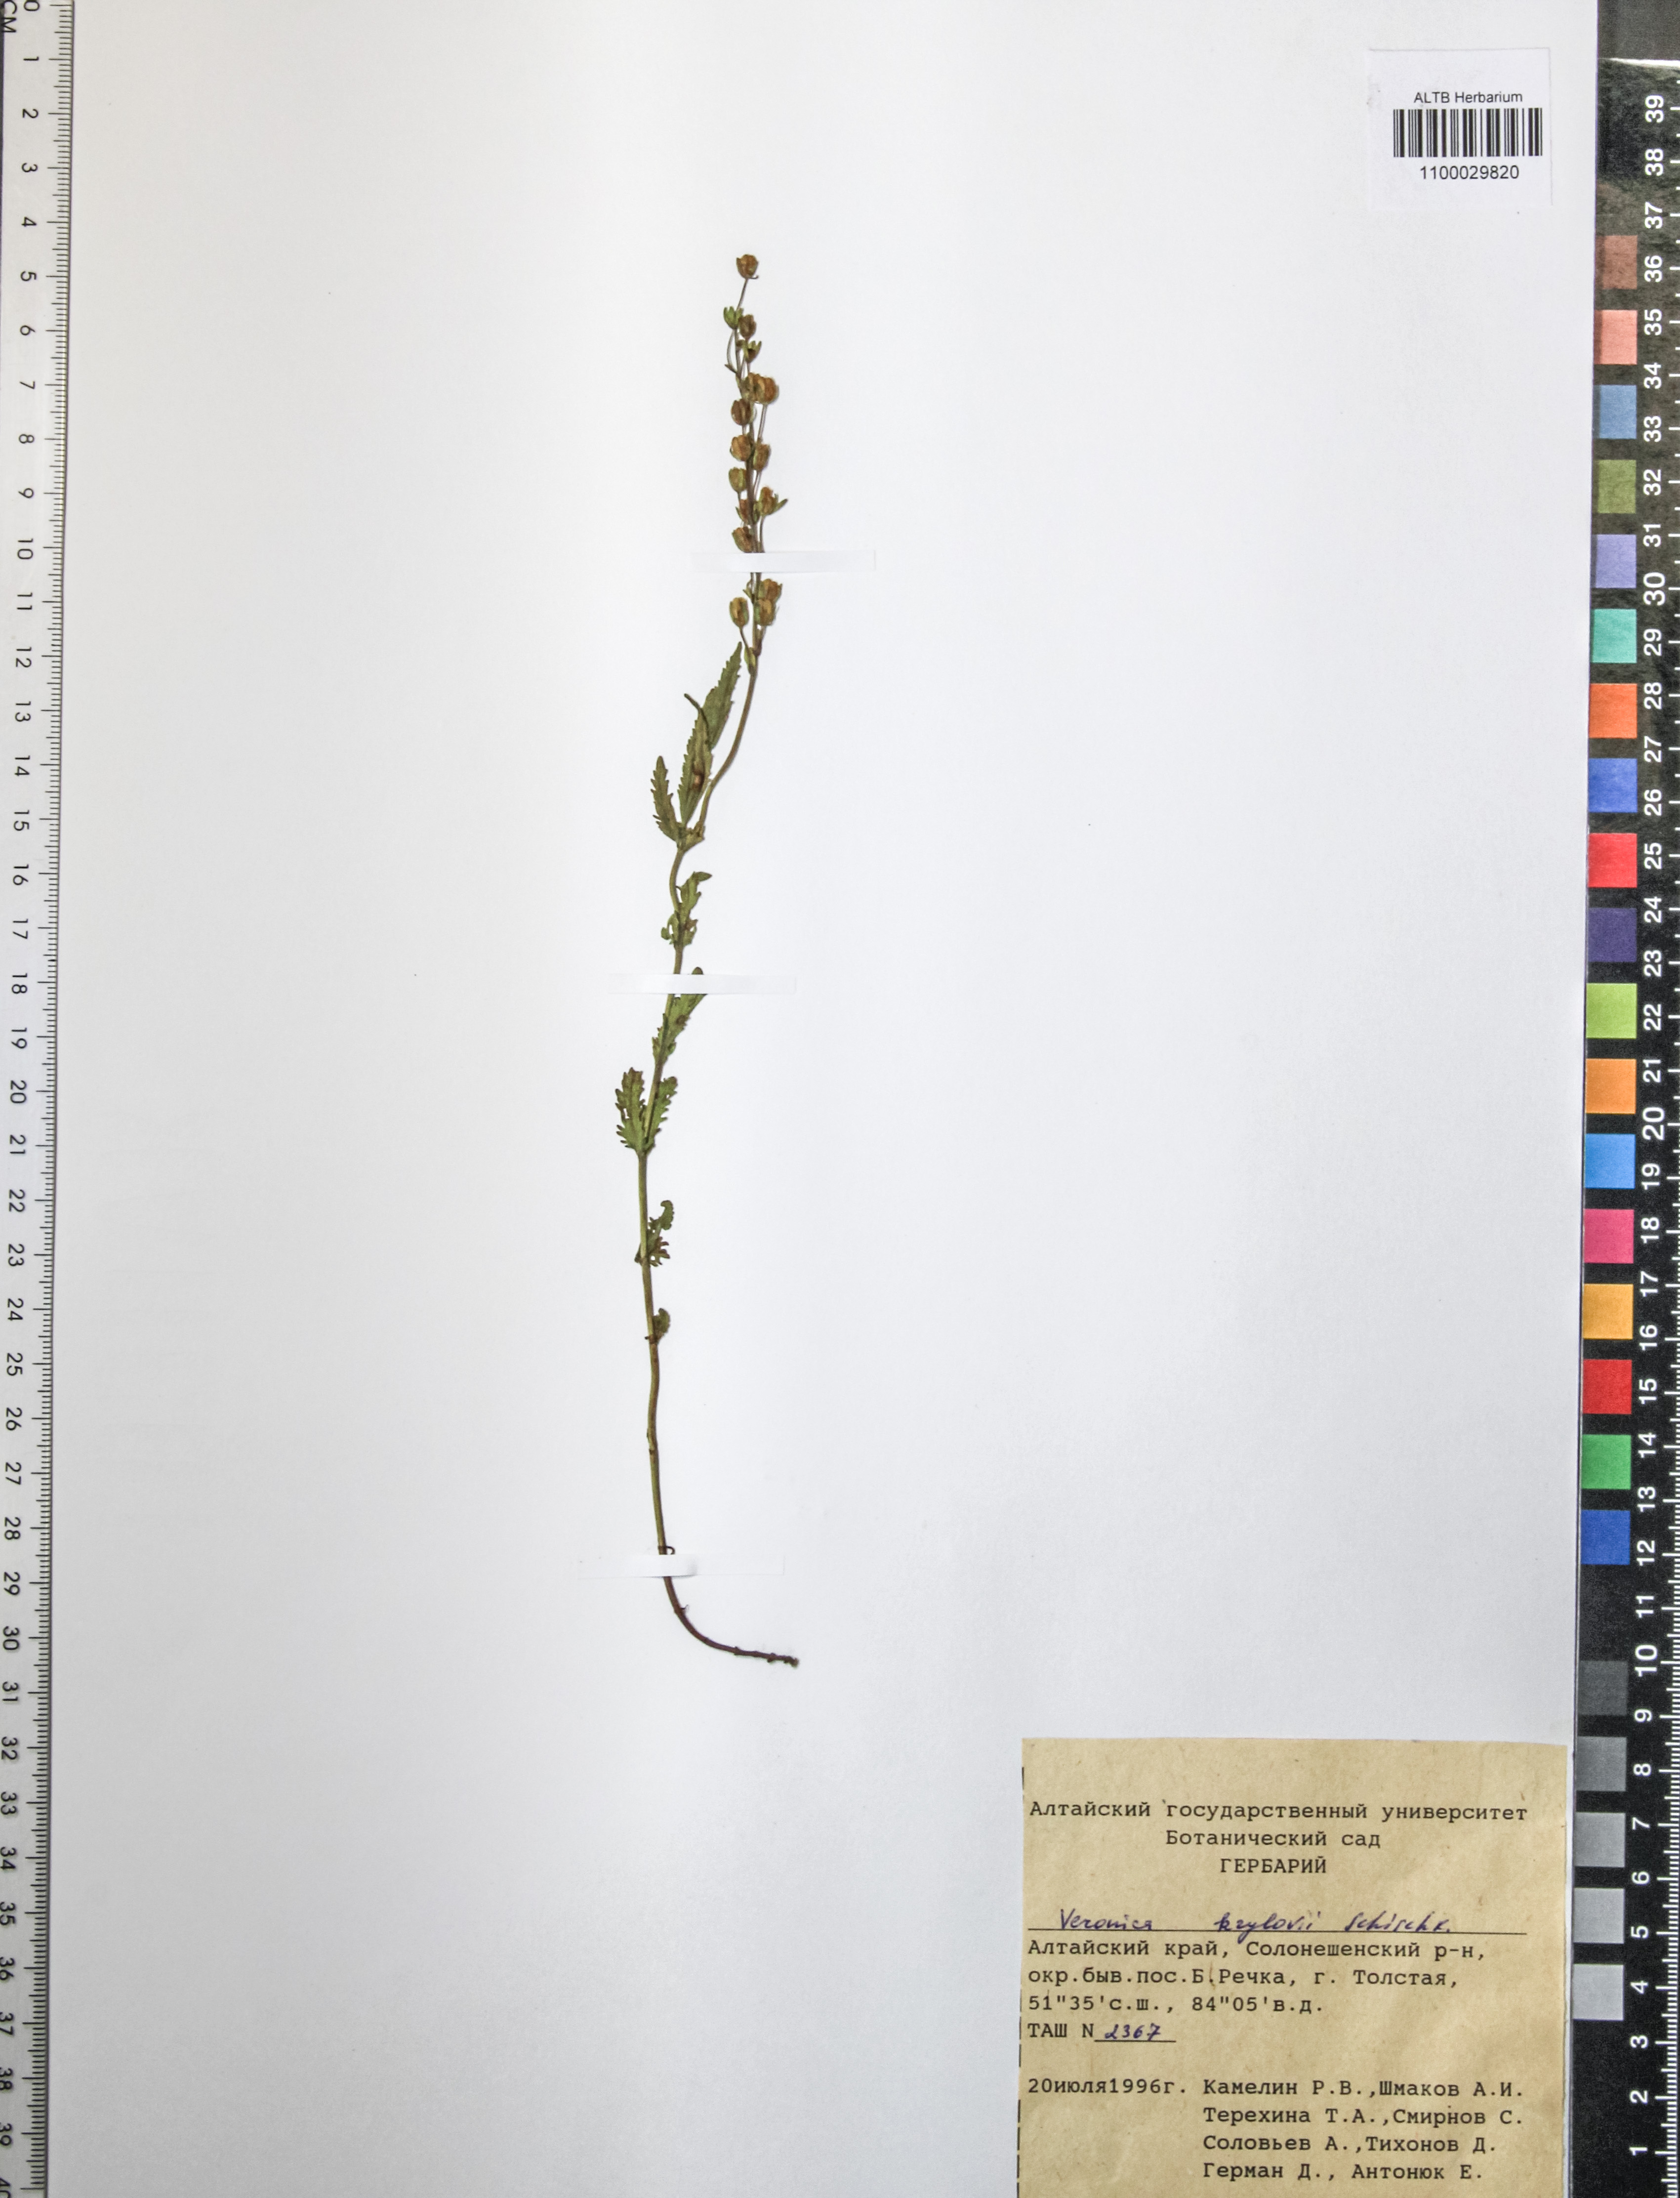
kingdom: Plantae
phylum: Tracheophyta
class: Magnoliopsida
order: Lamiales
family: Plantaginaceae
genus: Veronica
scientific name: Veronica krylovii
